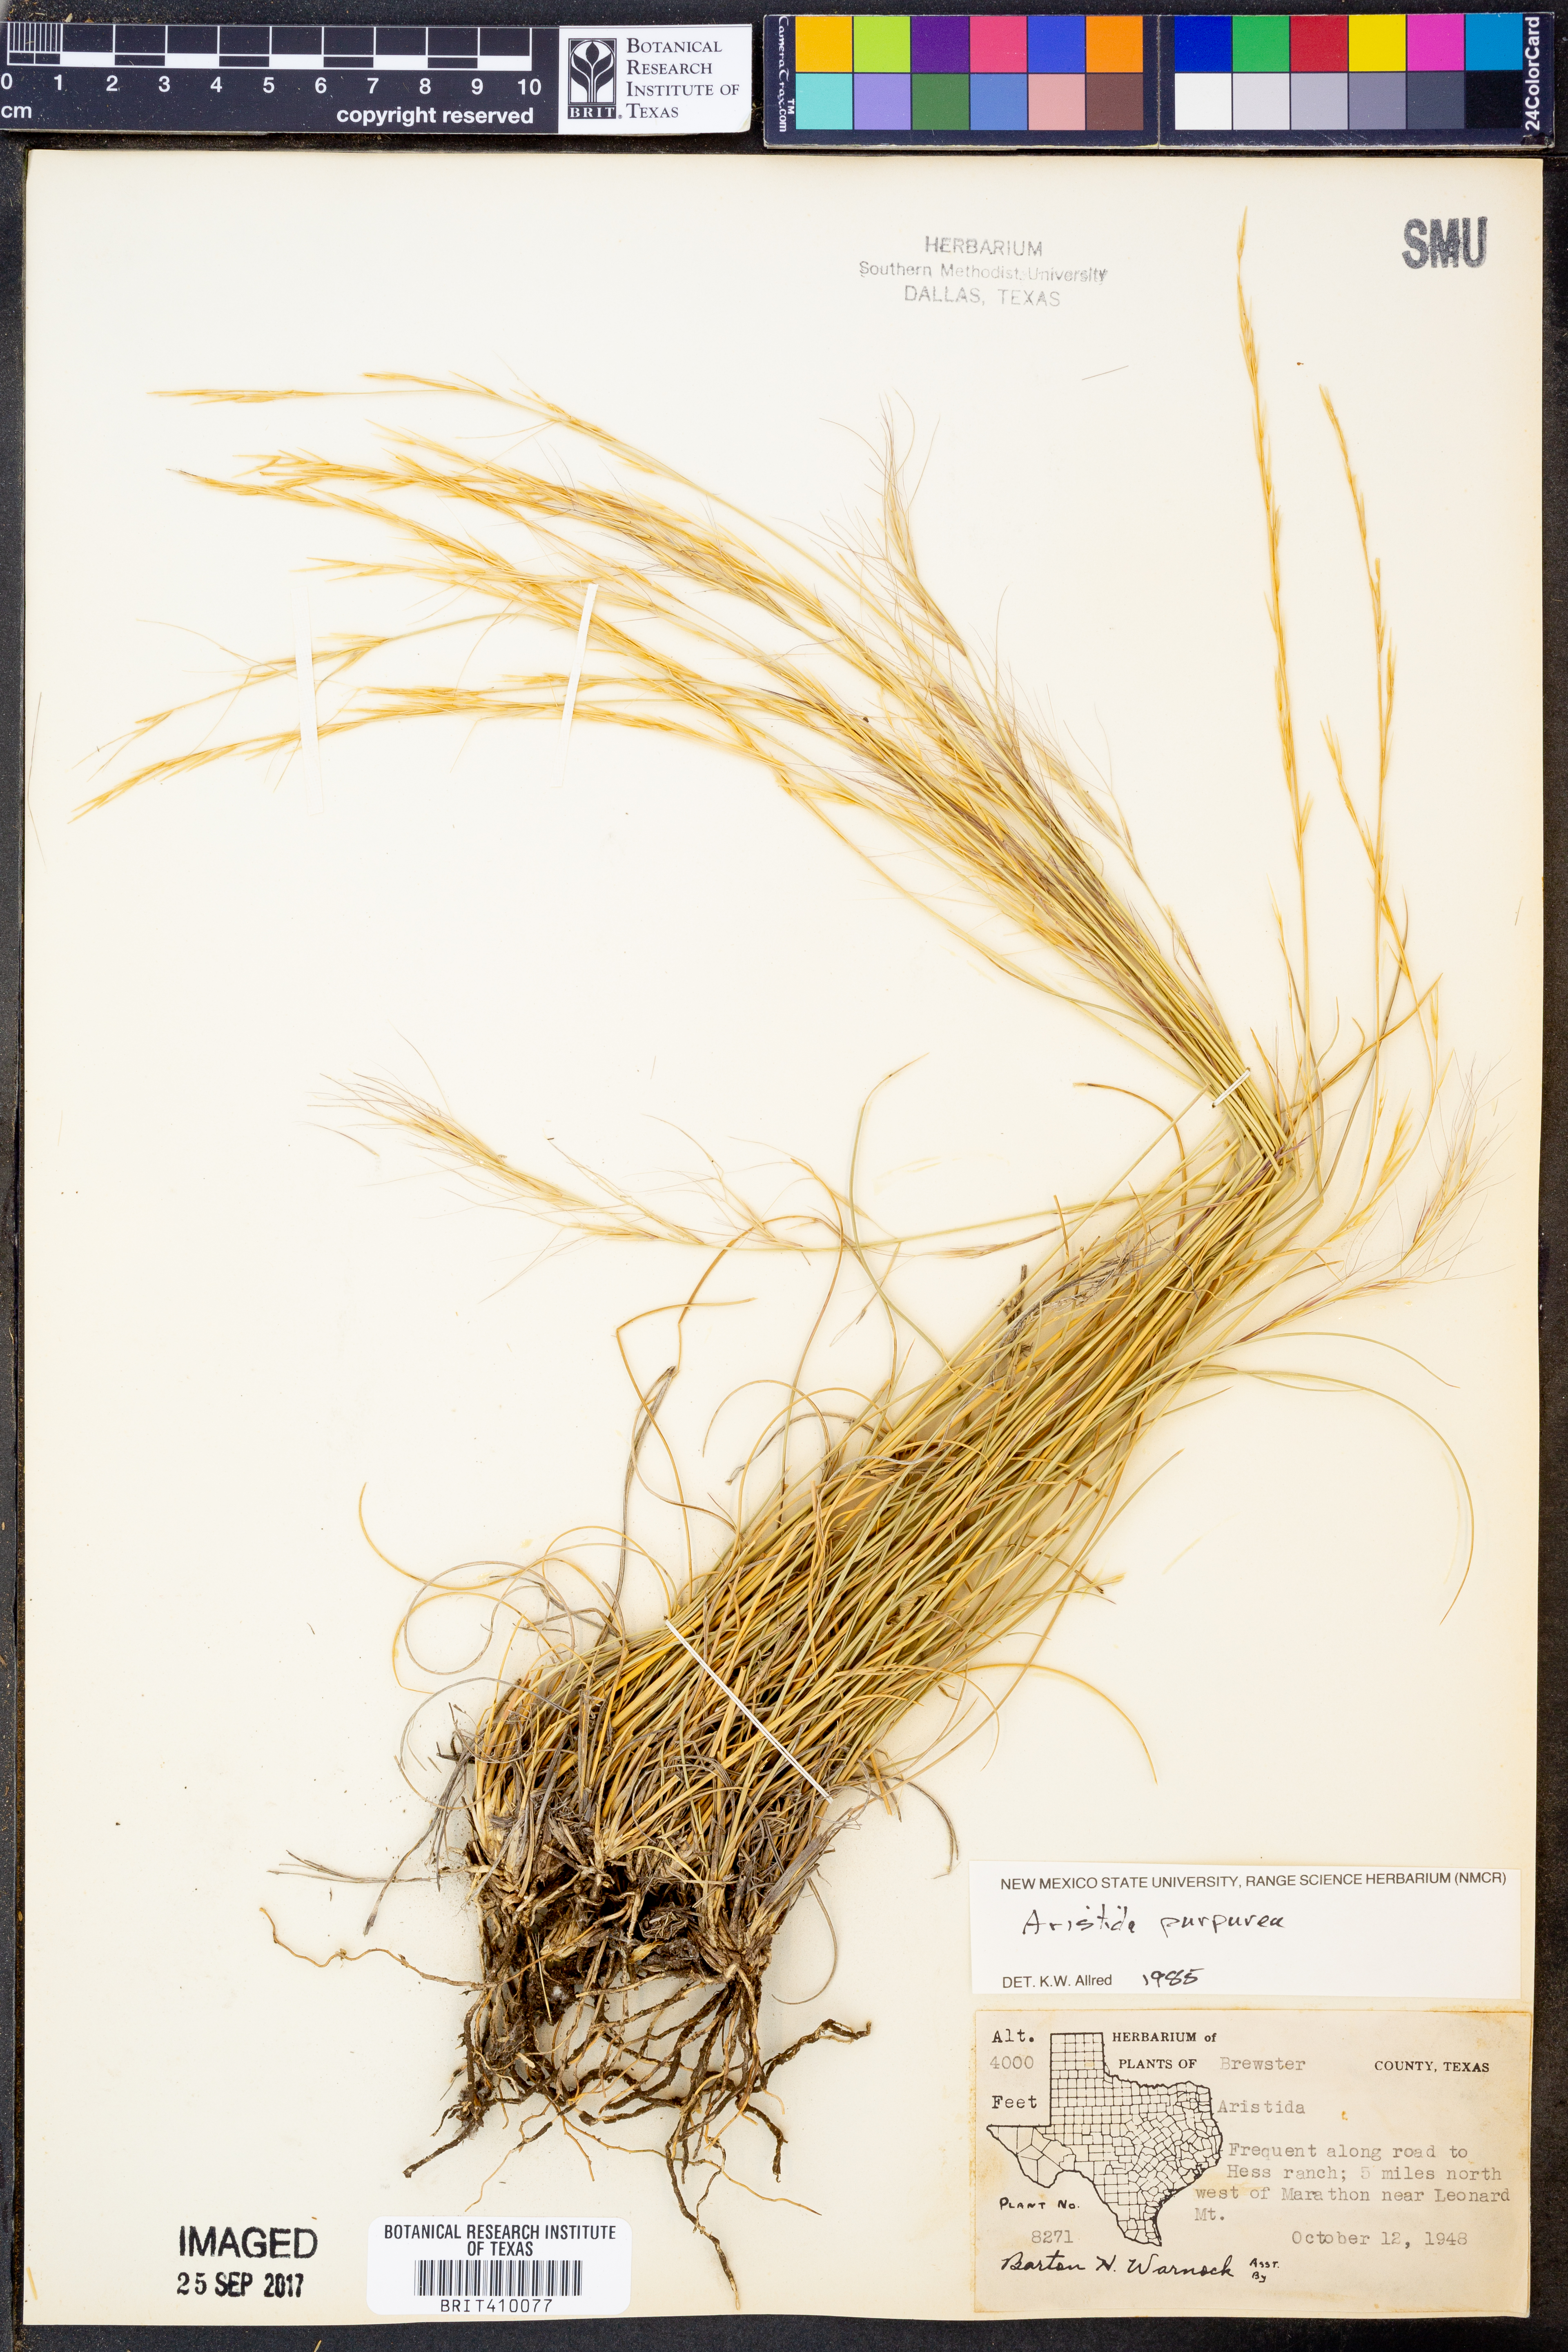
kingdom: Plantae
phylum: Tracheophyta
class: Liliopsida
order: Poales
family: Poaceae
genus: Aristida
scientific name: Aristida purpurea
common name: Purple threeawn
